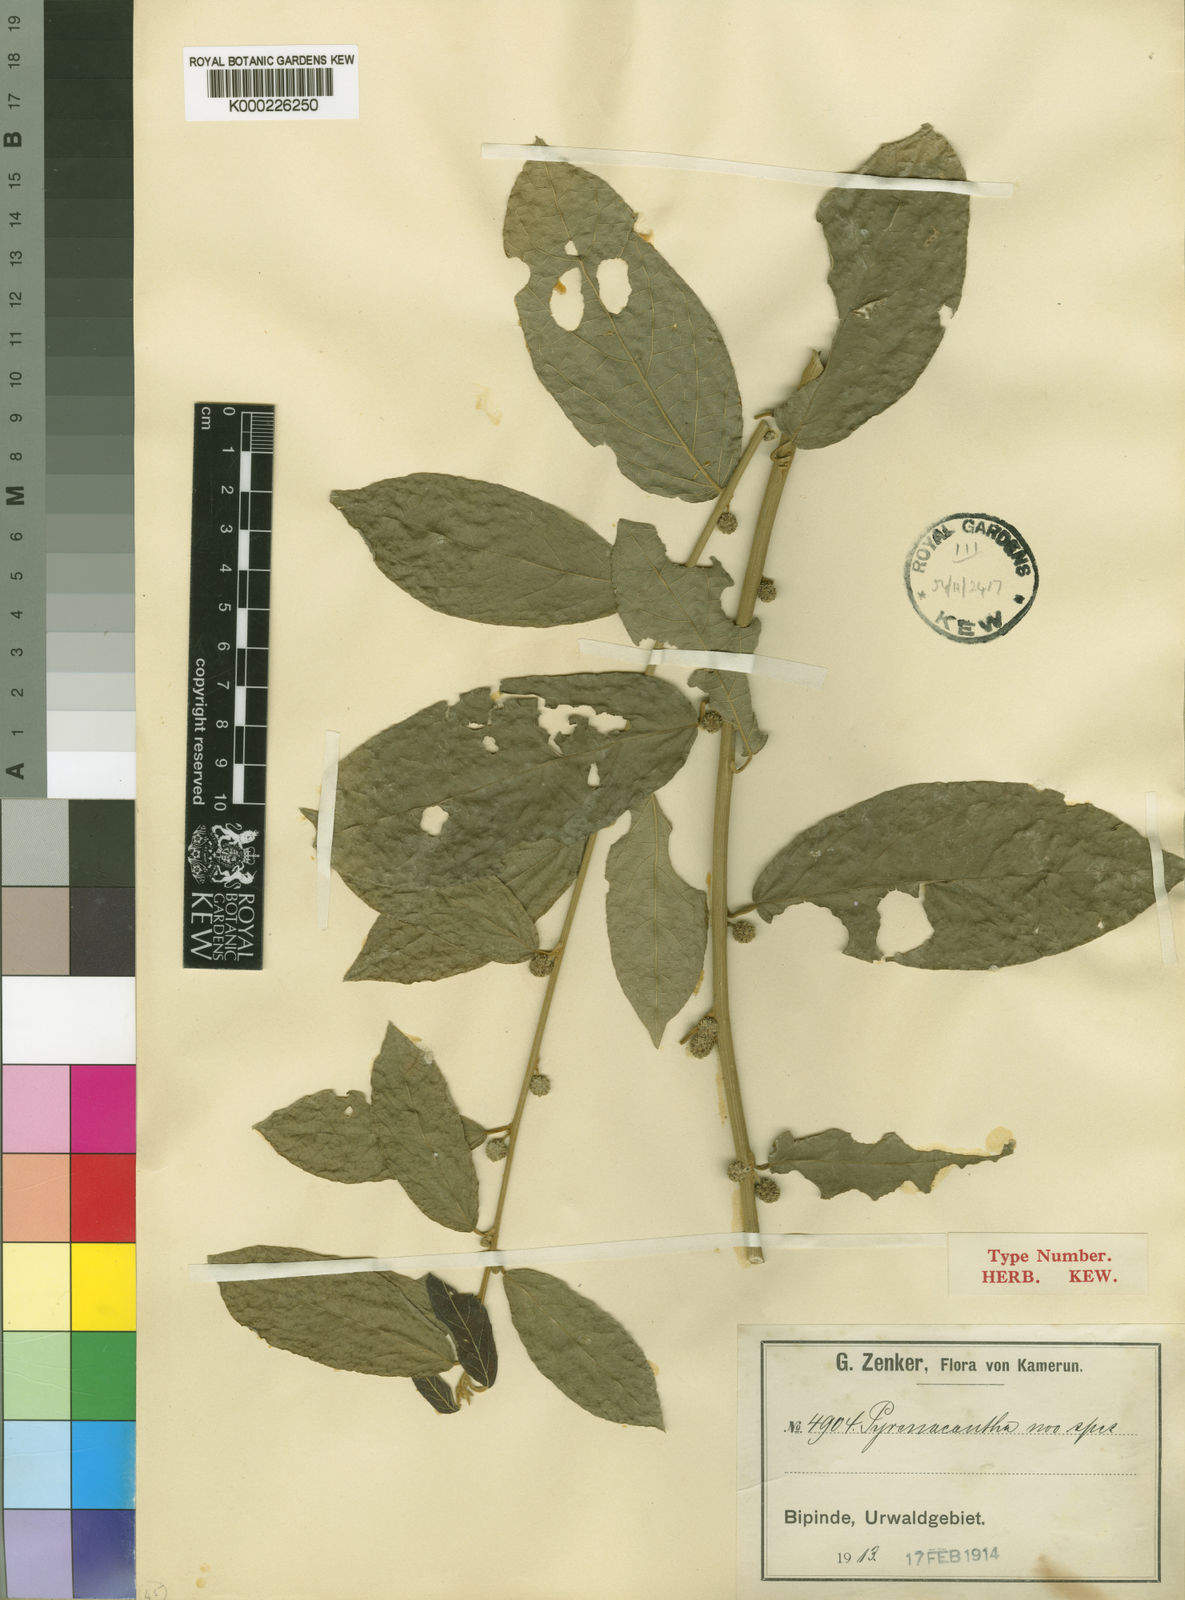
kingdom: Plantae
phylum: Tracheophyta
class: Magnoliopsida
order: Icacinales
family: Icacinaceae
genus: Pyrenacantha
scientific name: Pyrenacantha staudtii
